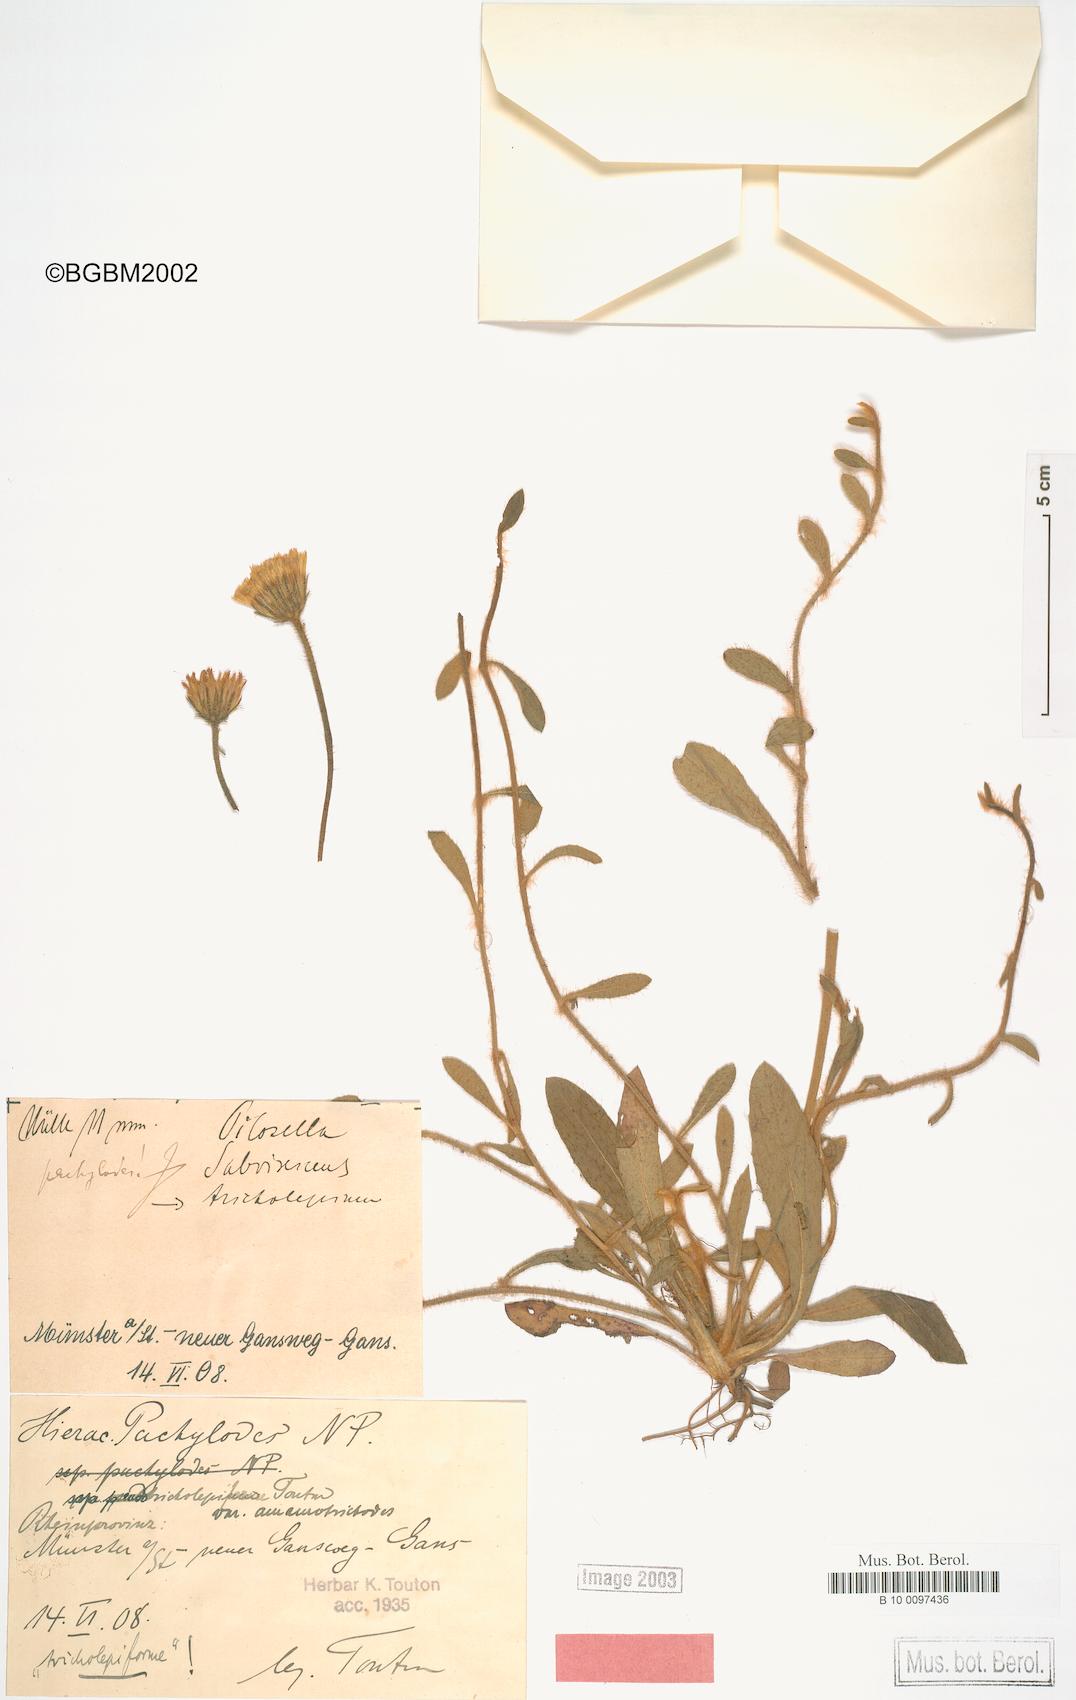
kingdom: Plantae
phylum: Tracheophyta
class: Magnoliopsida
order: Asterales
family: Asteraceae
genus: Pilosella
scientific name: Pilosella longisquama
